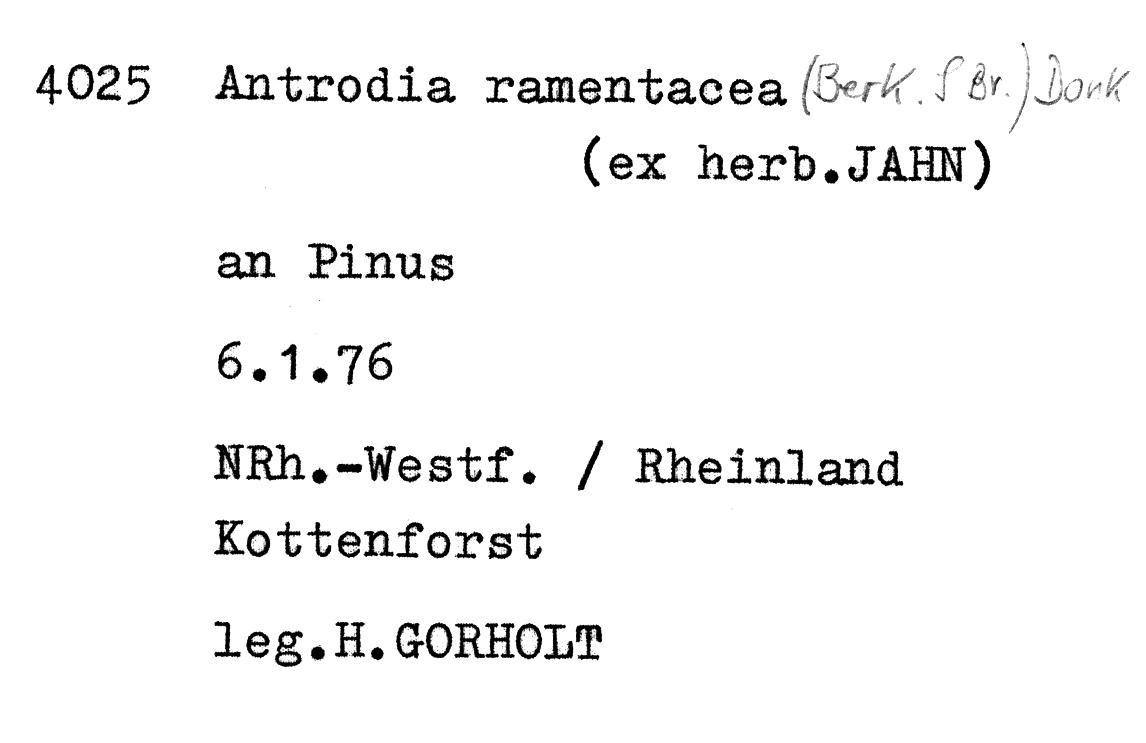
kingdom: Plantae
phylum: Tracheophyta
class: Pinopsida
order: Pinales
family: Pinaceae
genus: Pinus
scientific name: Pinus
